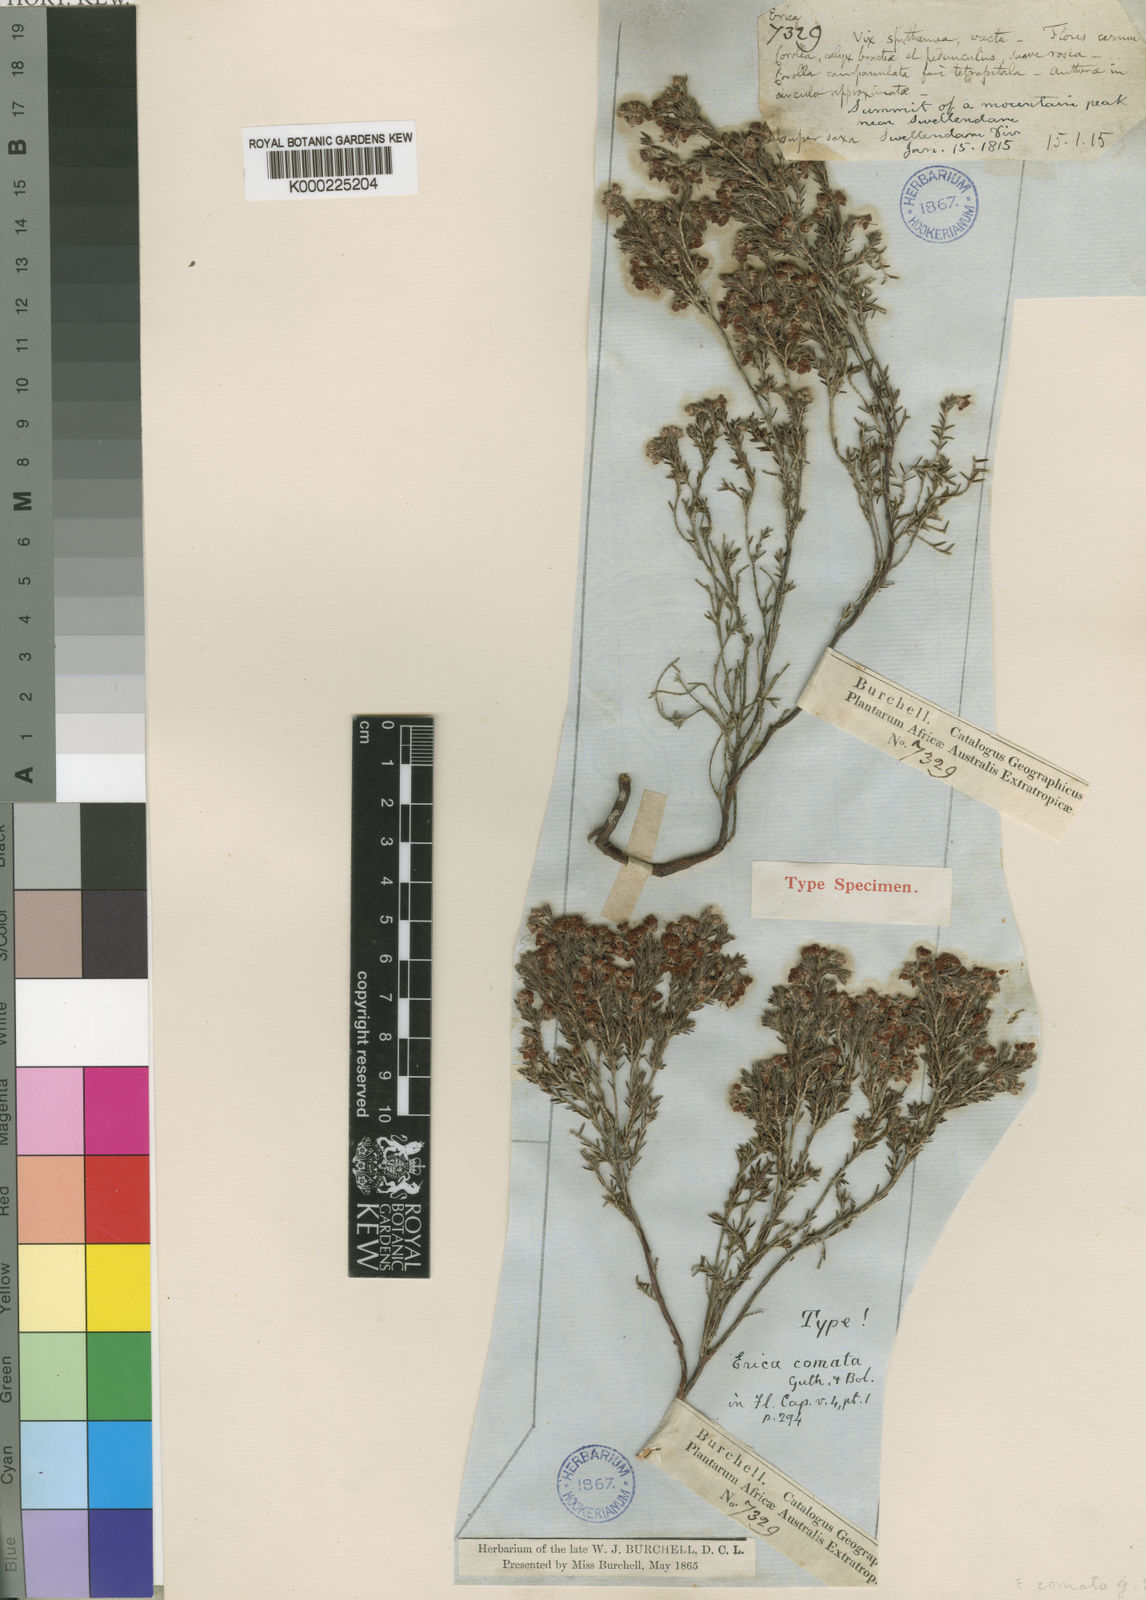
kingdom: Plantae
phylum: Tracheophyta
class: Magnoliopsida
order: Ericales
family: Ericaceae
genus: Erica
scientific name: Erica comata
